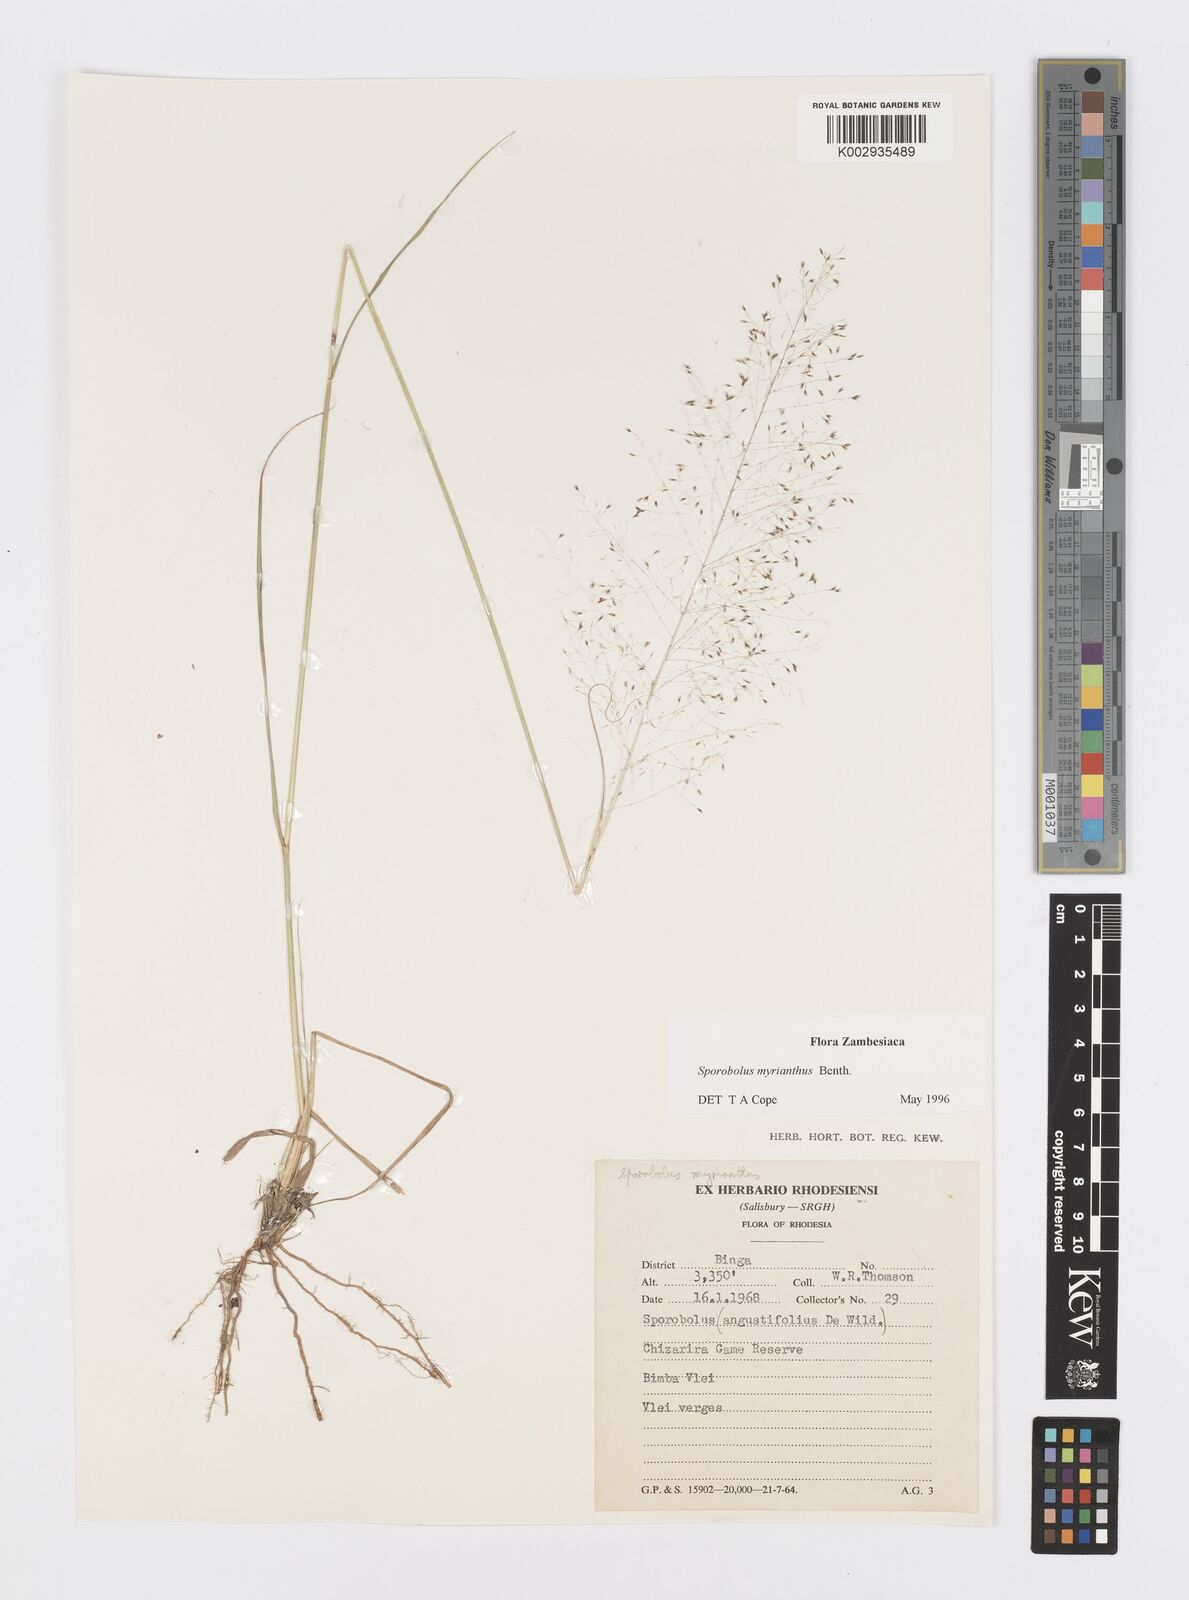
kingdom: Plantae
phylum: Tracheophyta
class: Liliopsida
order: Poales
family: Poaceae
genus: Sporobolus
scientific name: Sporobolus myrianthus
